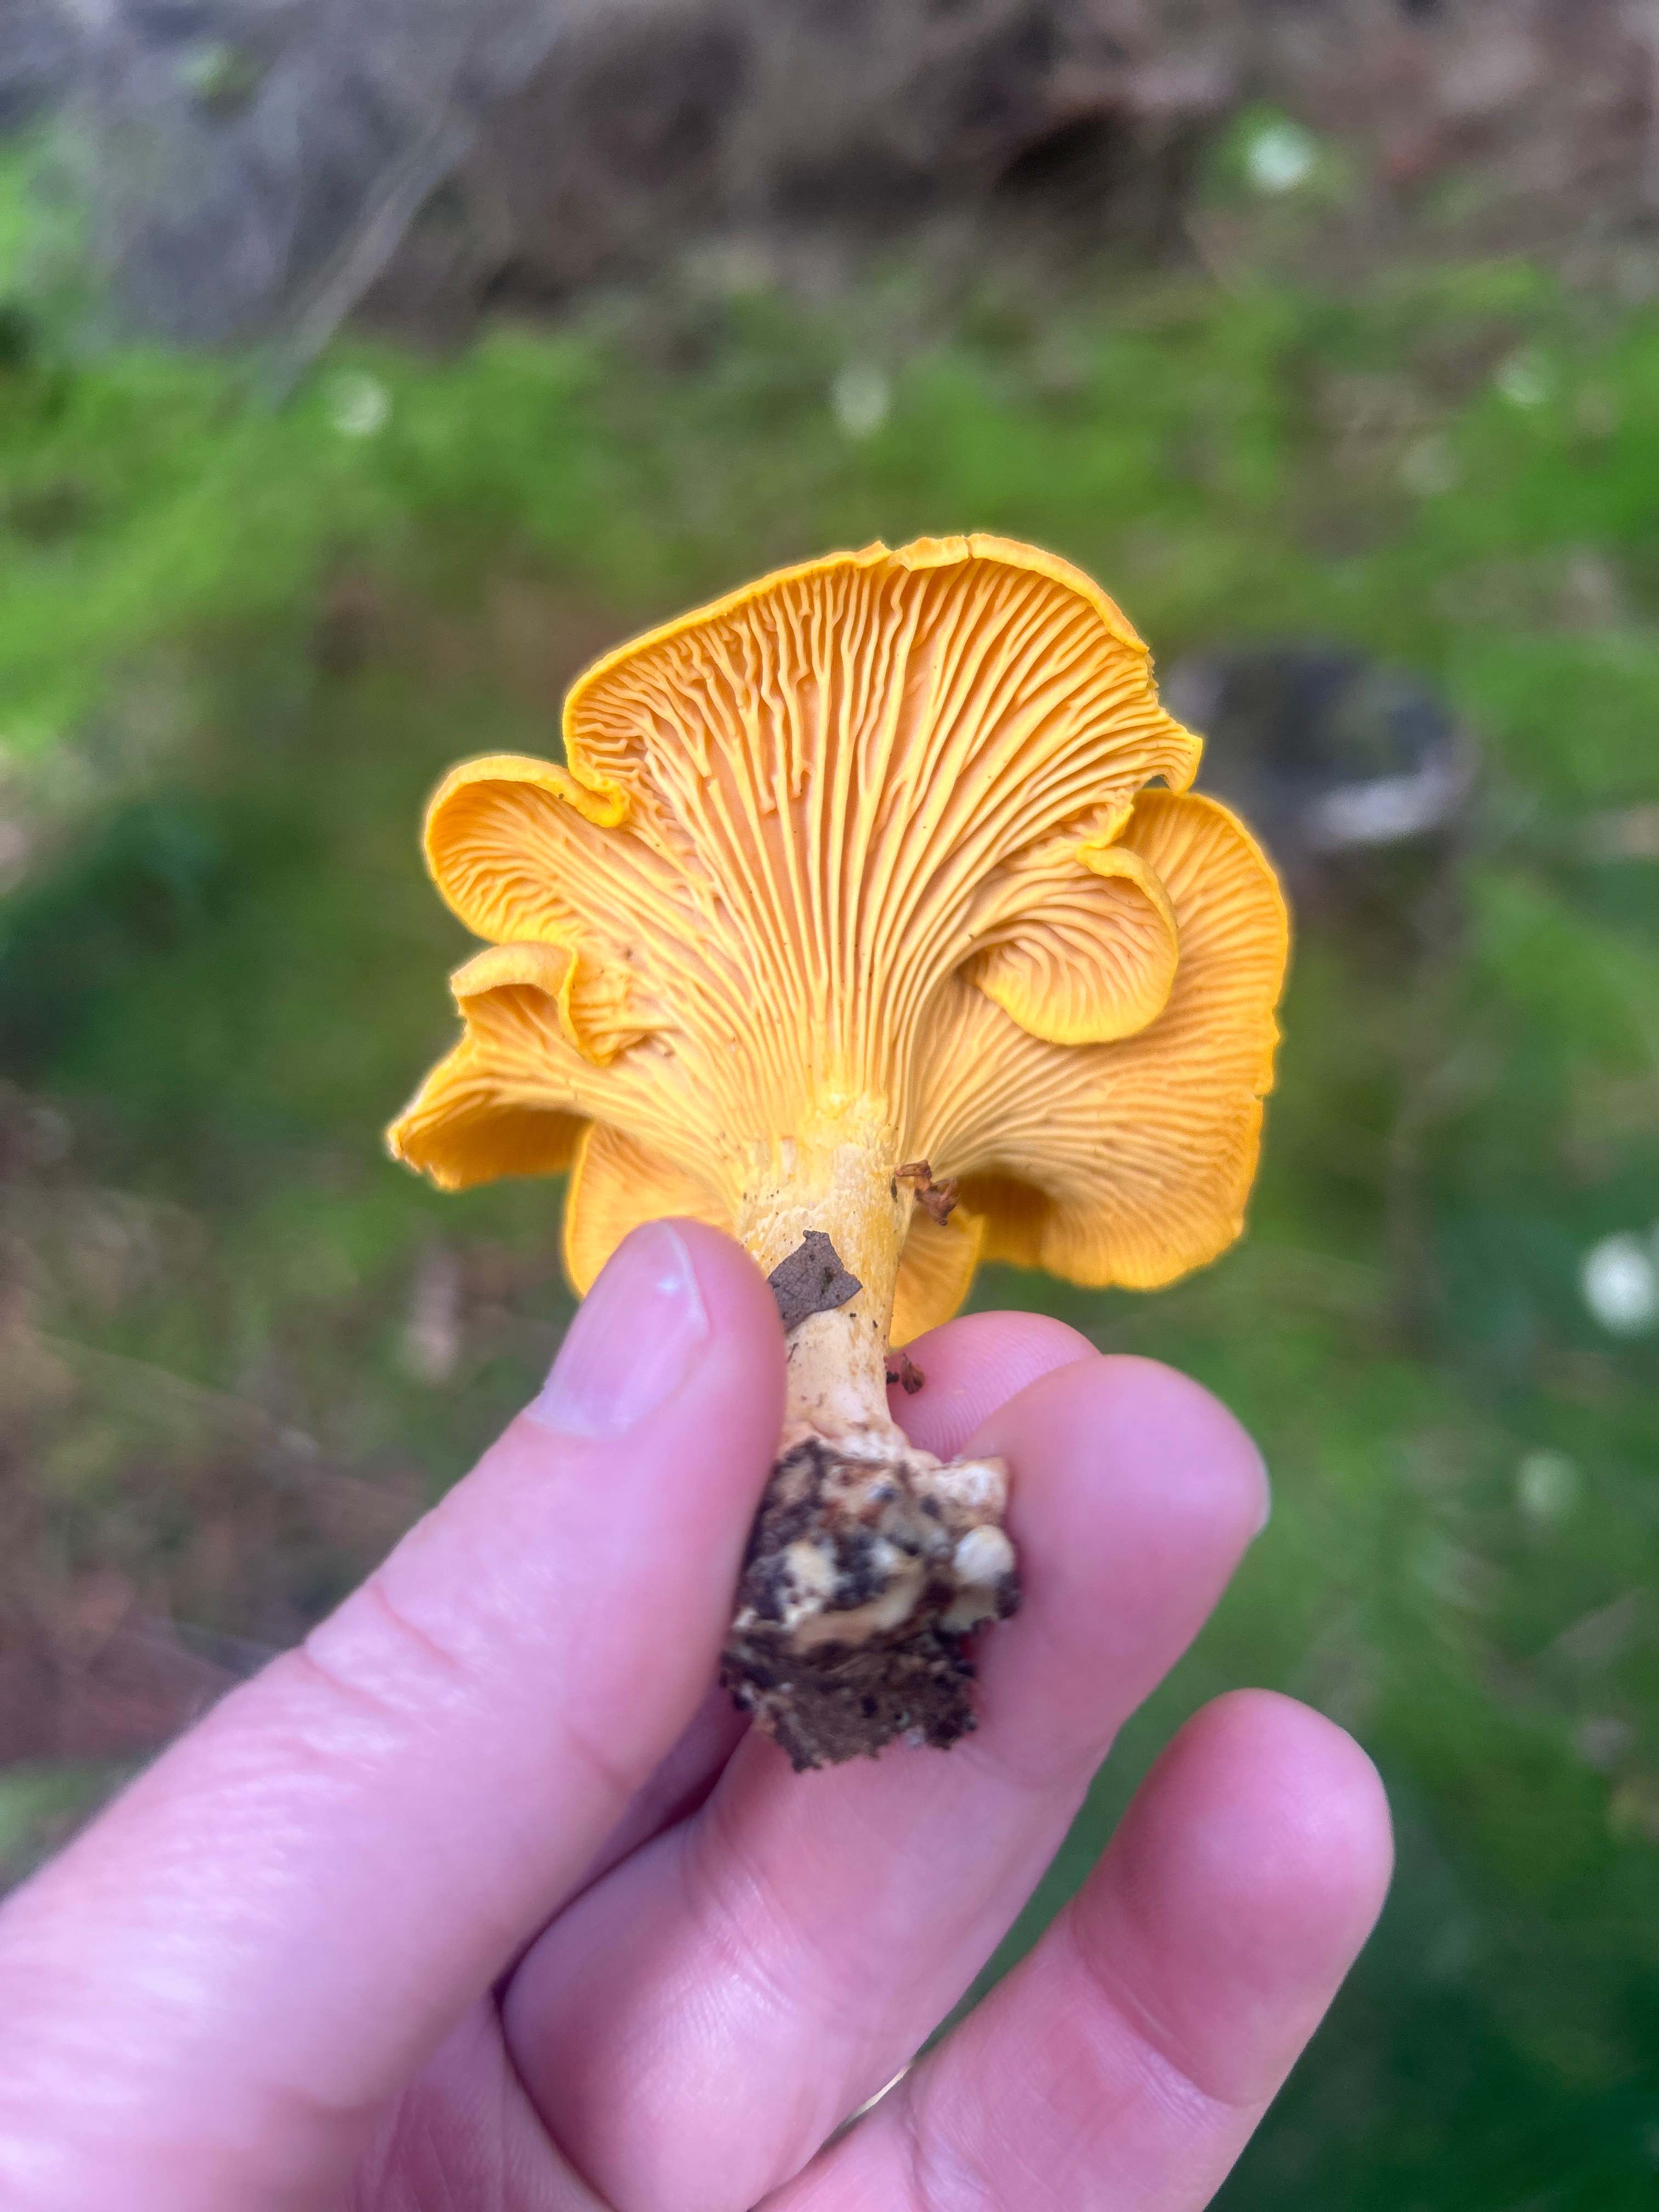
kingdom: Fungi
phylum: Basidiomycota
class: Agaricomycetes
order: Cantharellales
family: Hydnaceae
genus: Cantharellus
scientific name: Cantharellus cibarius
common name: almindelig kantarel
